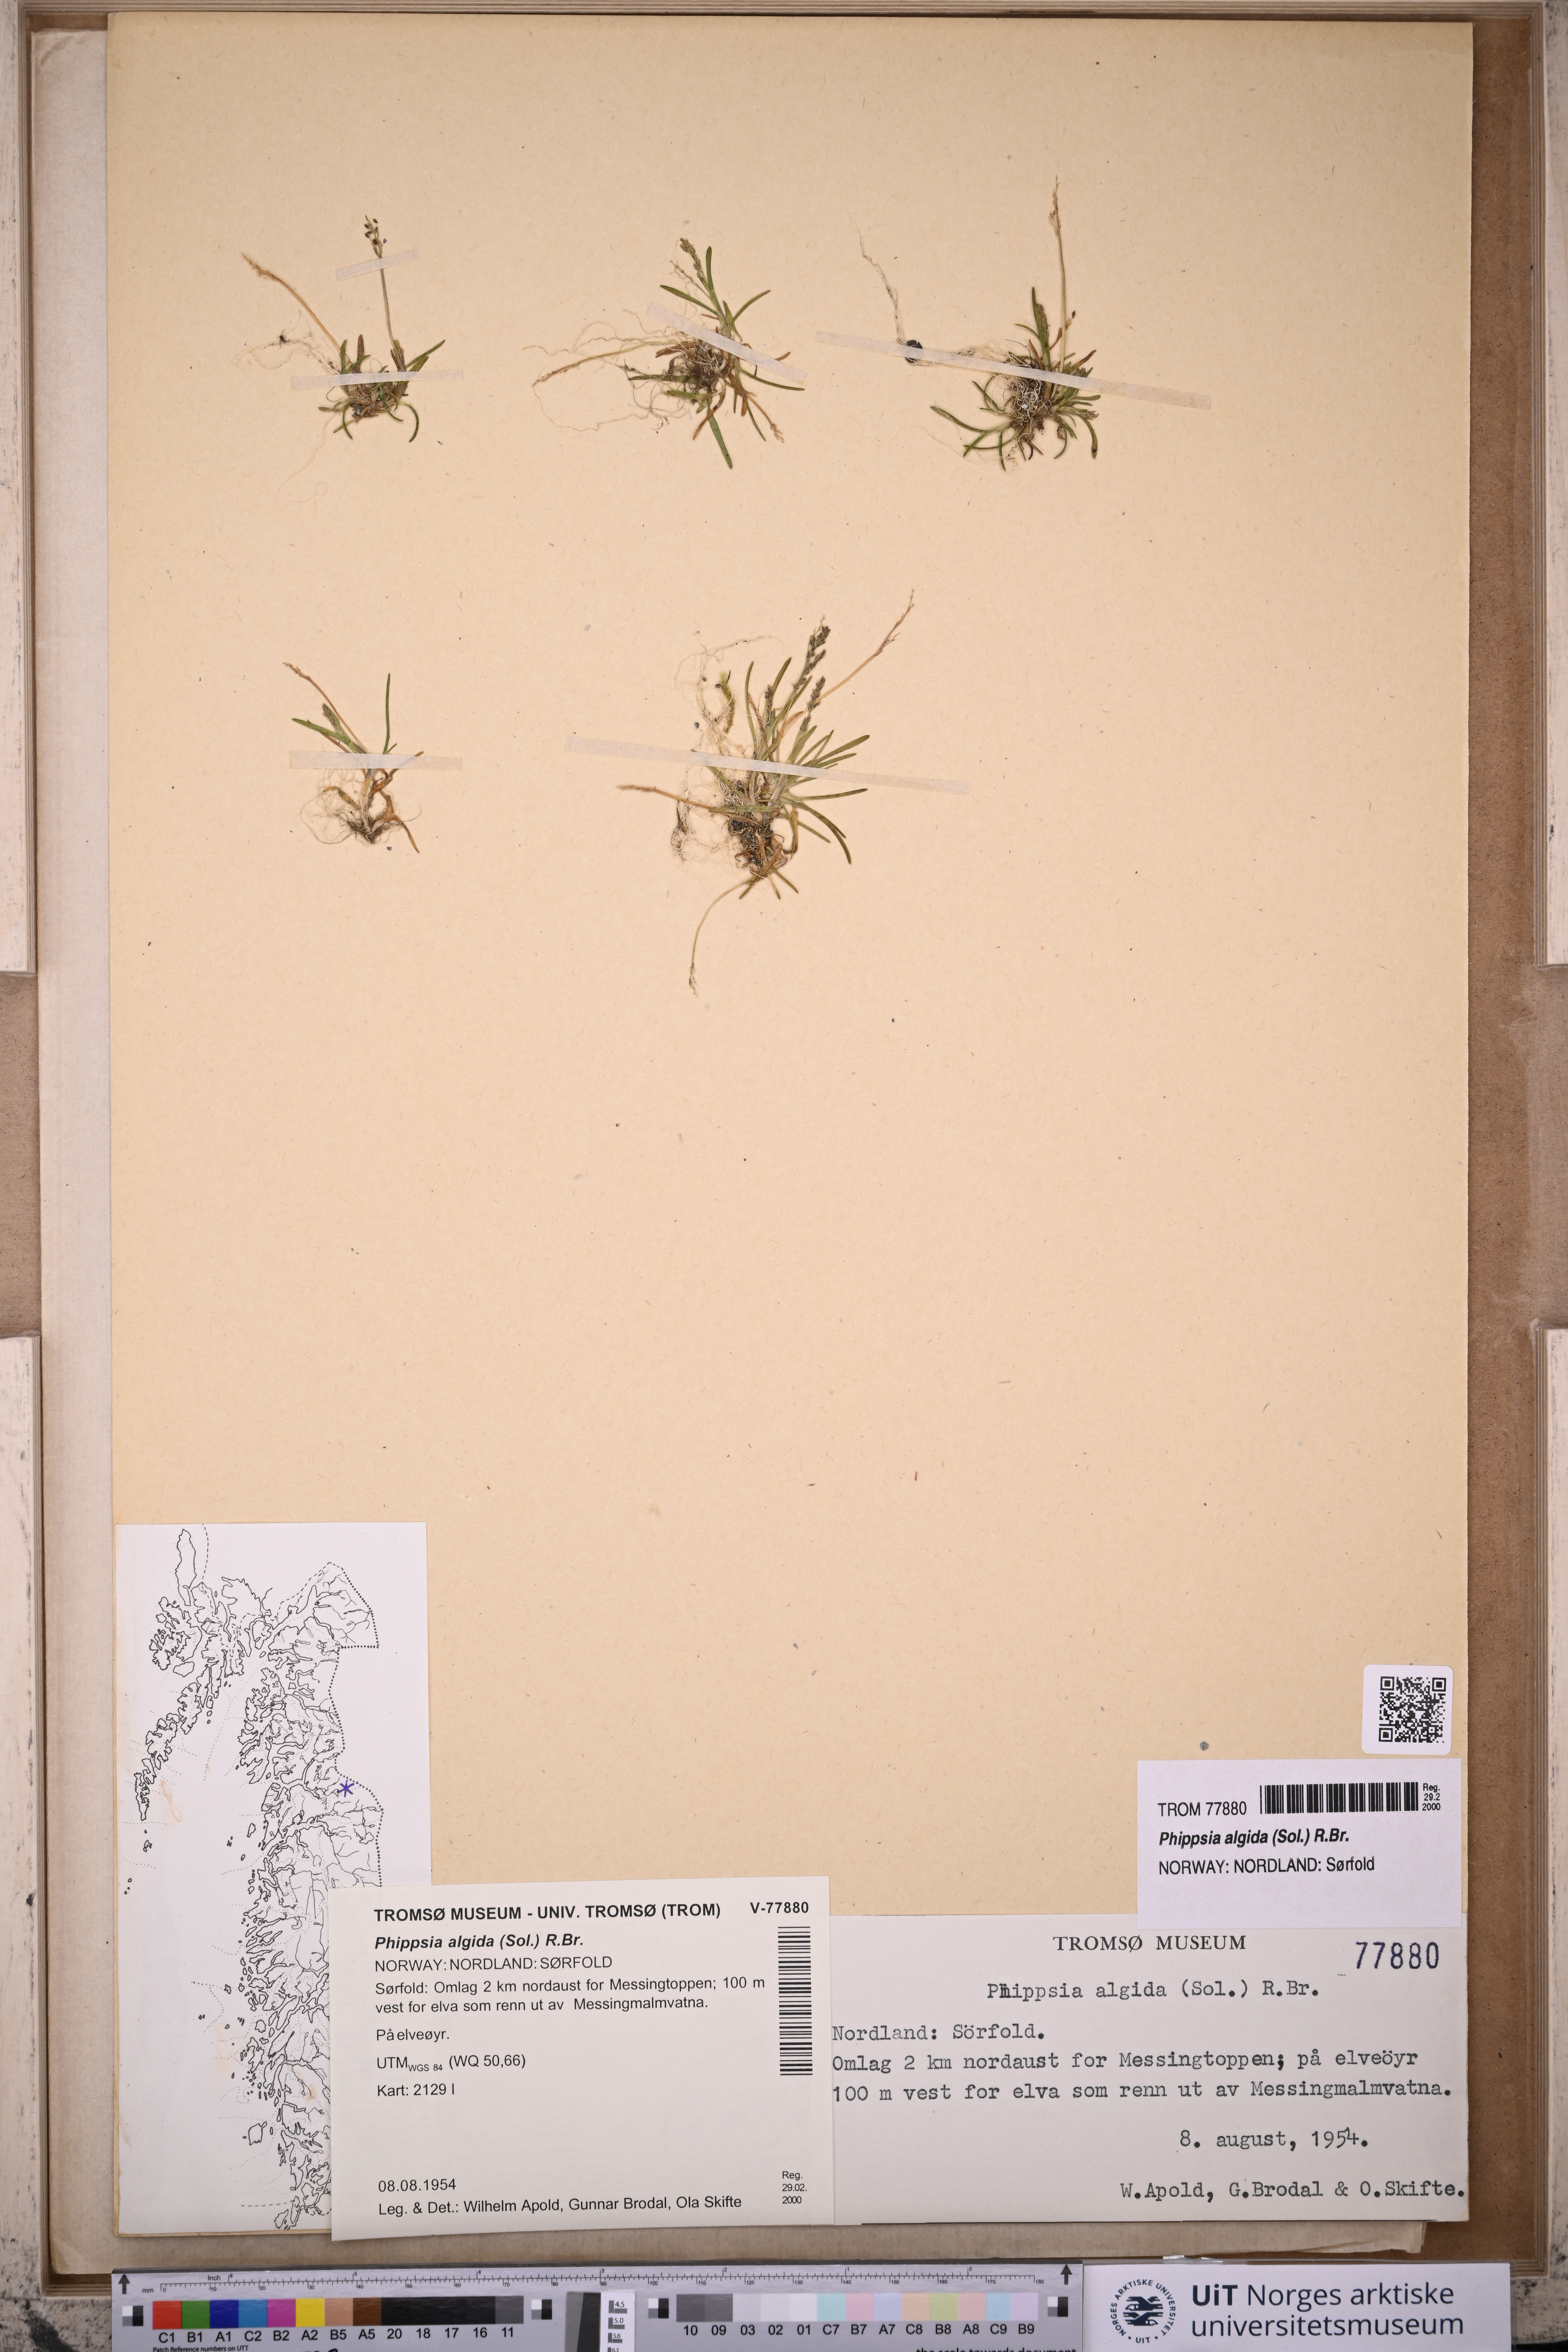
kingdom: Plantae
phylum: Tracheophyta
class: Liliopsida
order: Poales
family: Poaceae
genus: Phippsia
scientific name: Phippsia algida
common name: Ice grass
